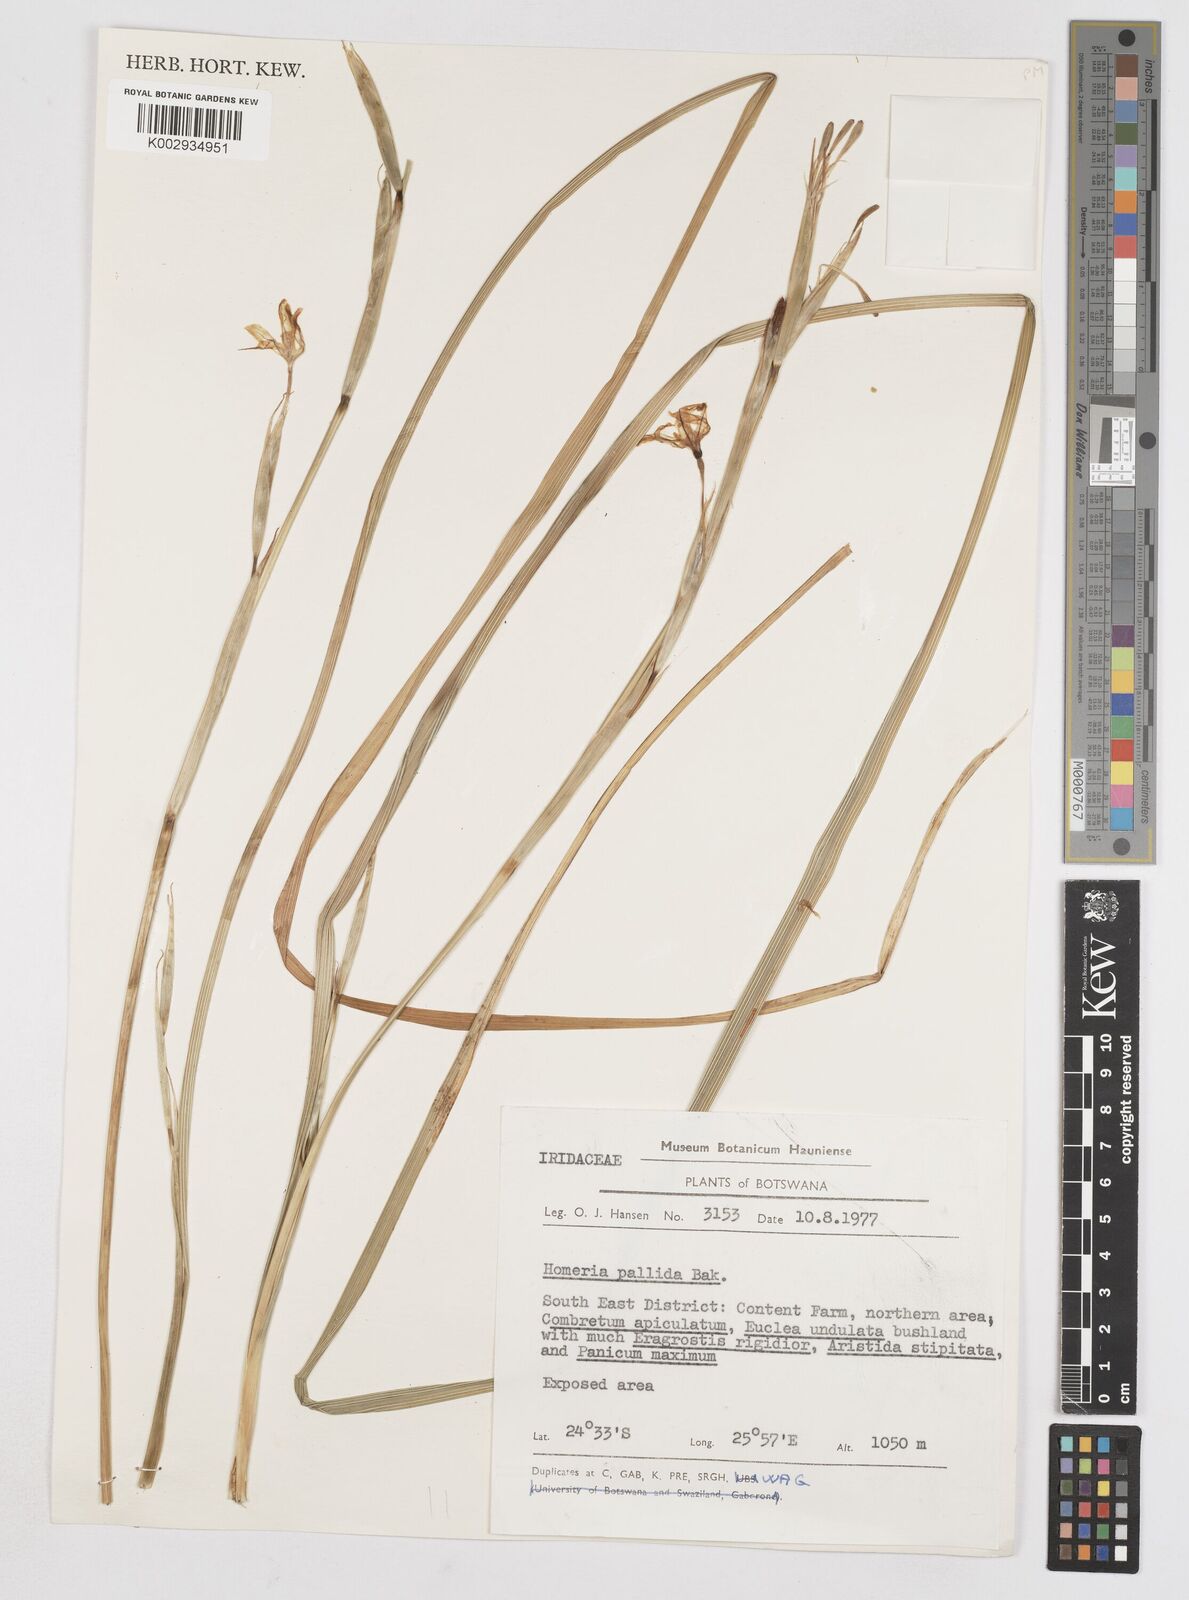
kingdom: Plantae
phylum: Tracheophyta
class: Liliopsida
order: Asparagales
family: Iridaceae
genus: Moraea
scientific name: Moraea pallida
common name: Yellow tulp
